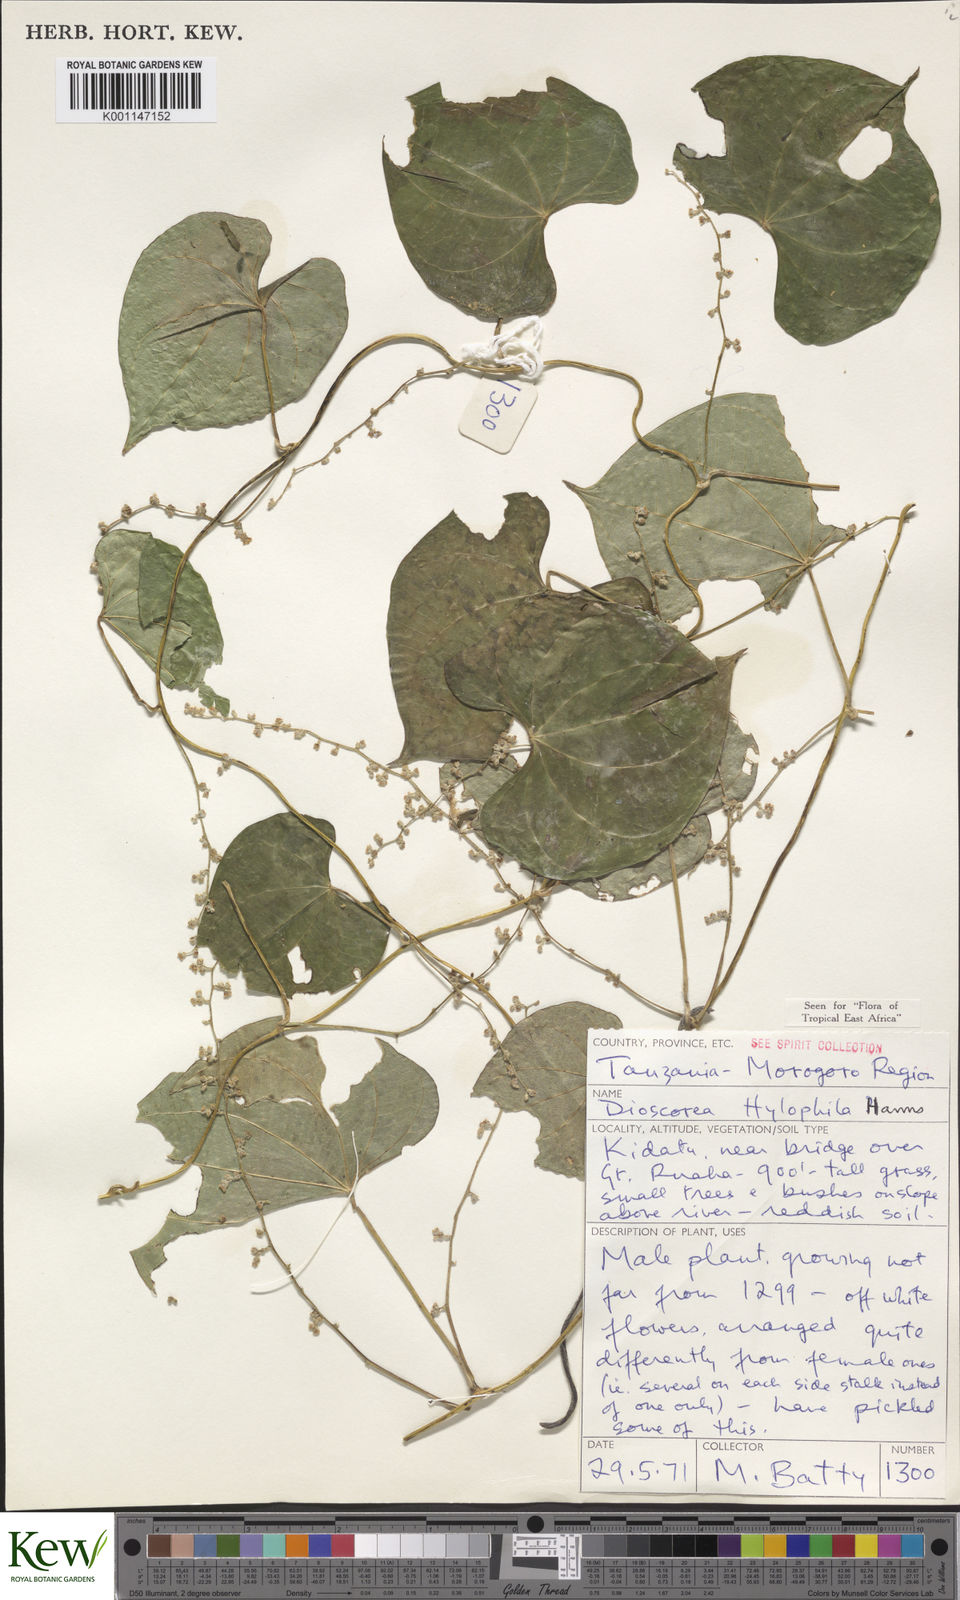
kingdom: Plantae
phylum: Tracheophyta
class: Liliopsida
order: Dioscoreales
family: Dioscoreaceae
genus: Dioscorea
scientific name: Dioscorea
